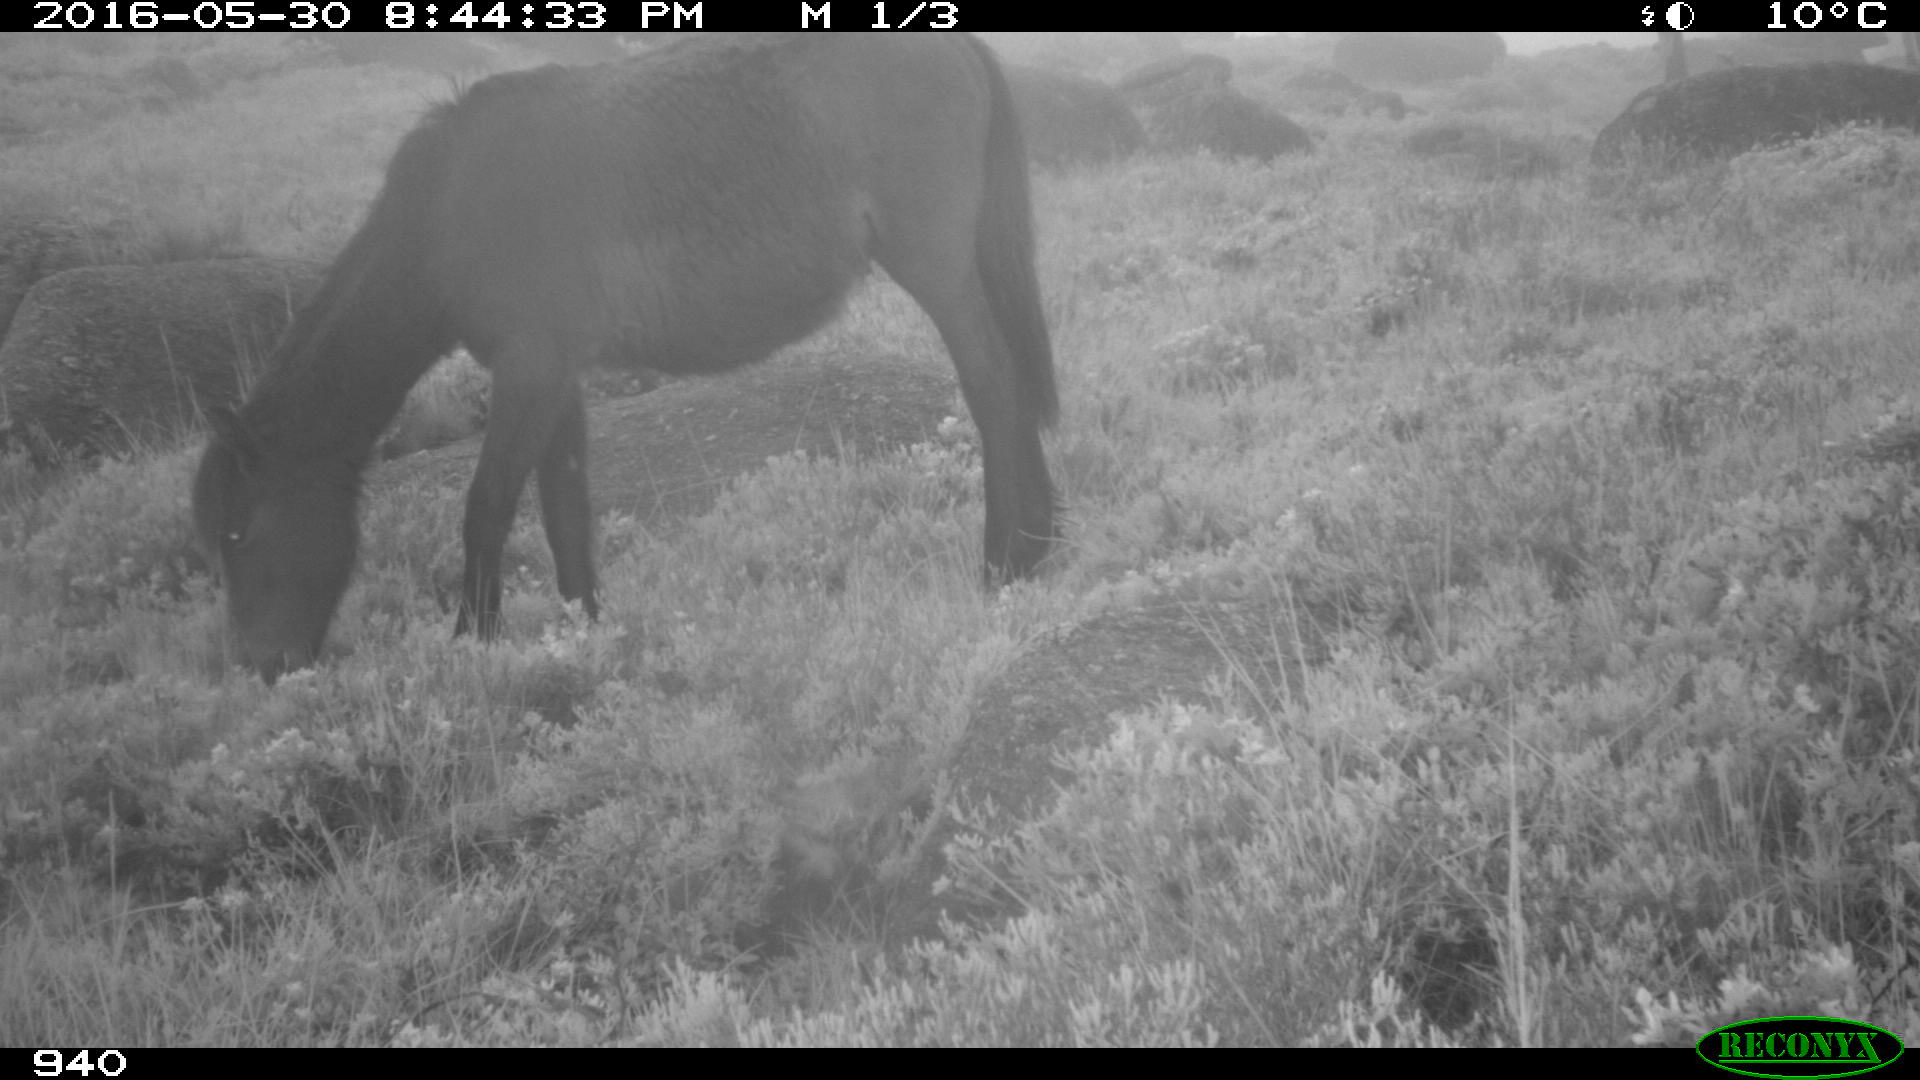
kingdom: Animalia
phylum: Chordata
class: Mammalia
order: Perissodactyla
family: Equidae
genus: Equus
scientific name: Equus caballus
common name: Horse
